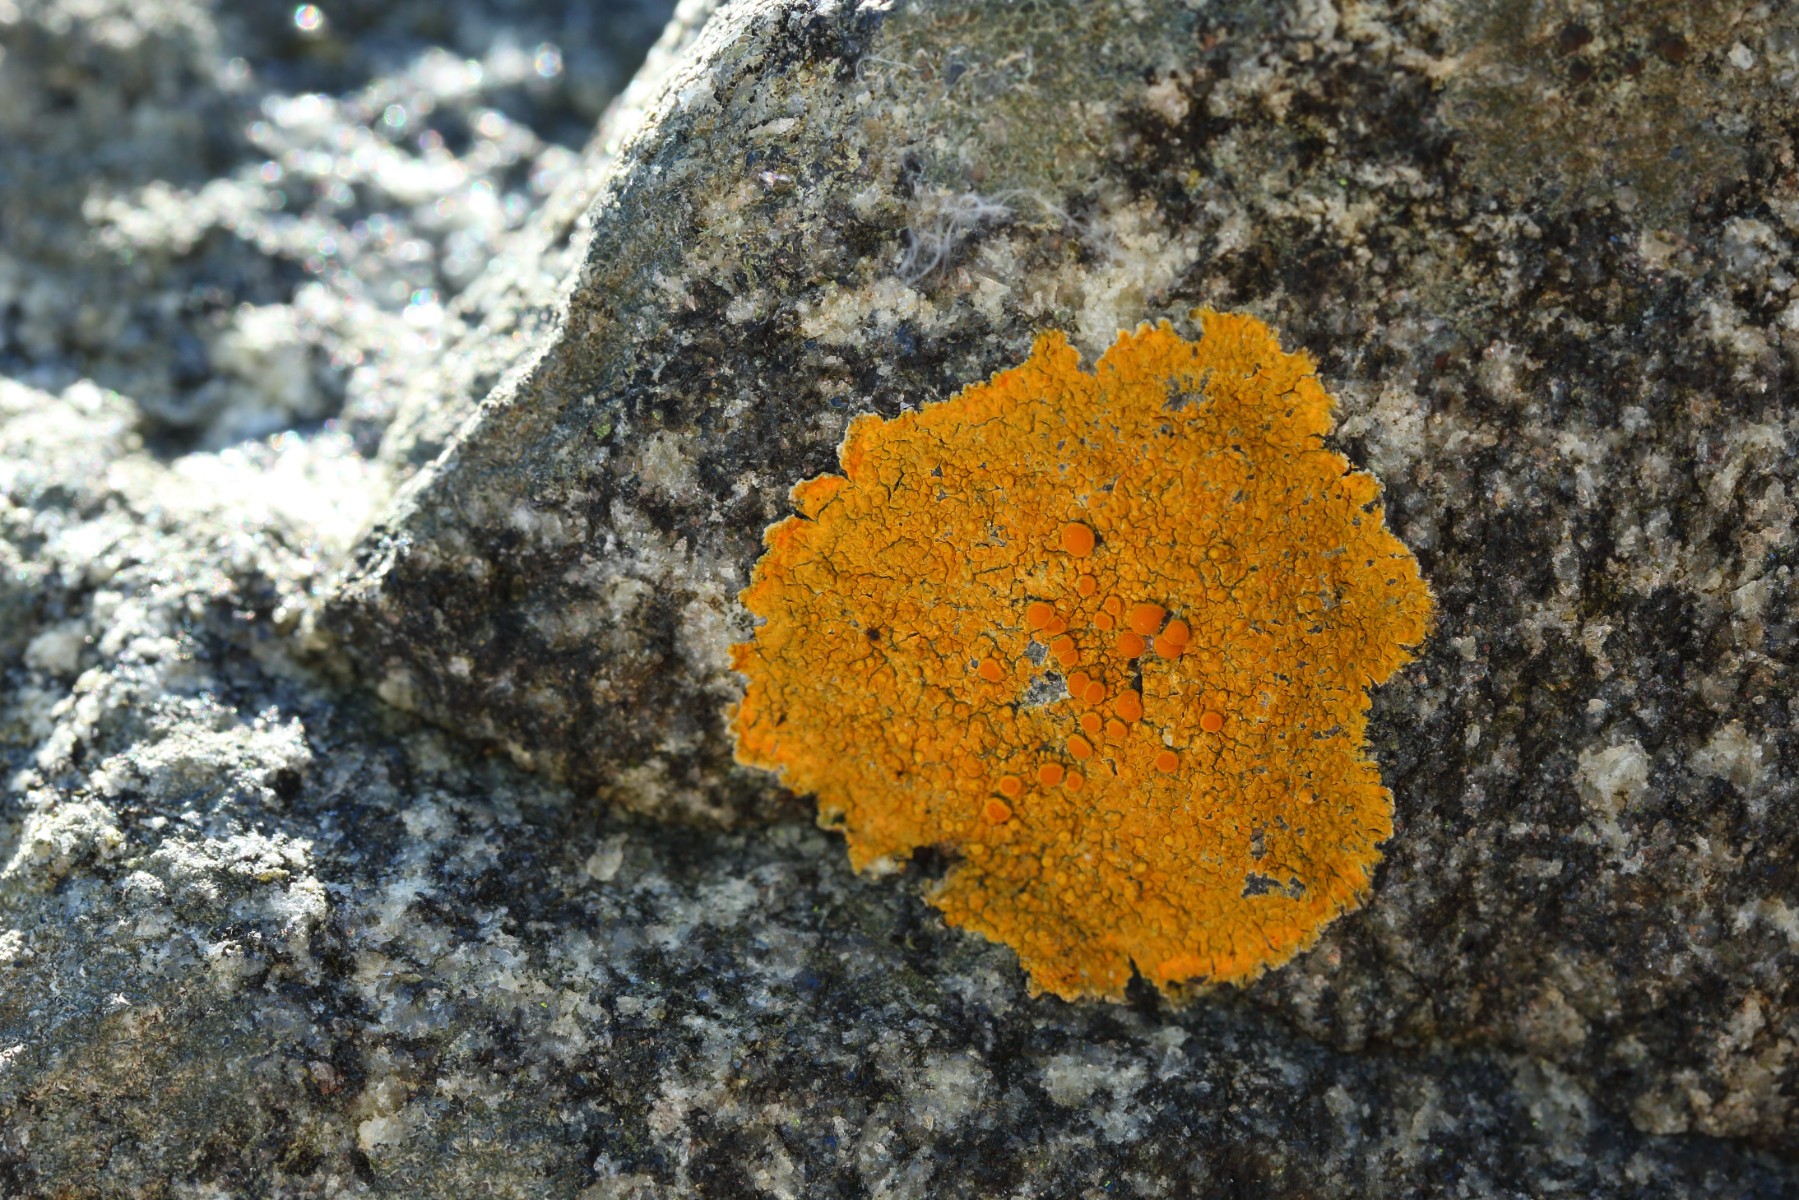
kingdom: Fungi
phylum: Ascomycota
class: Lecanoromycetes
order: Teloschistales
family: Teloschistaceae
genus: Flavoplaca
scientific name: Flavoplaca marina
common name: strand-orangelav
